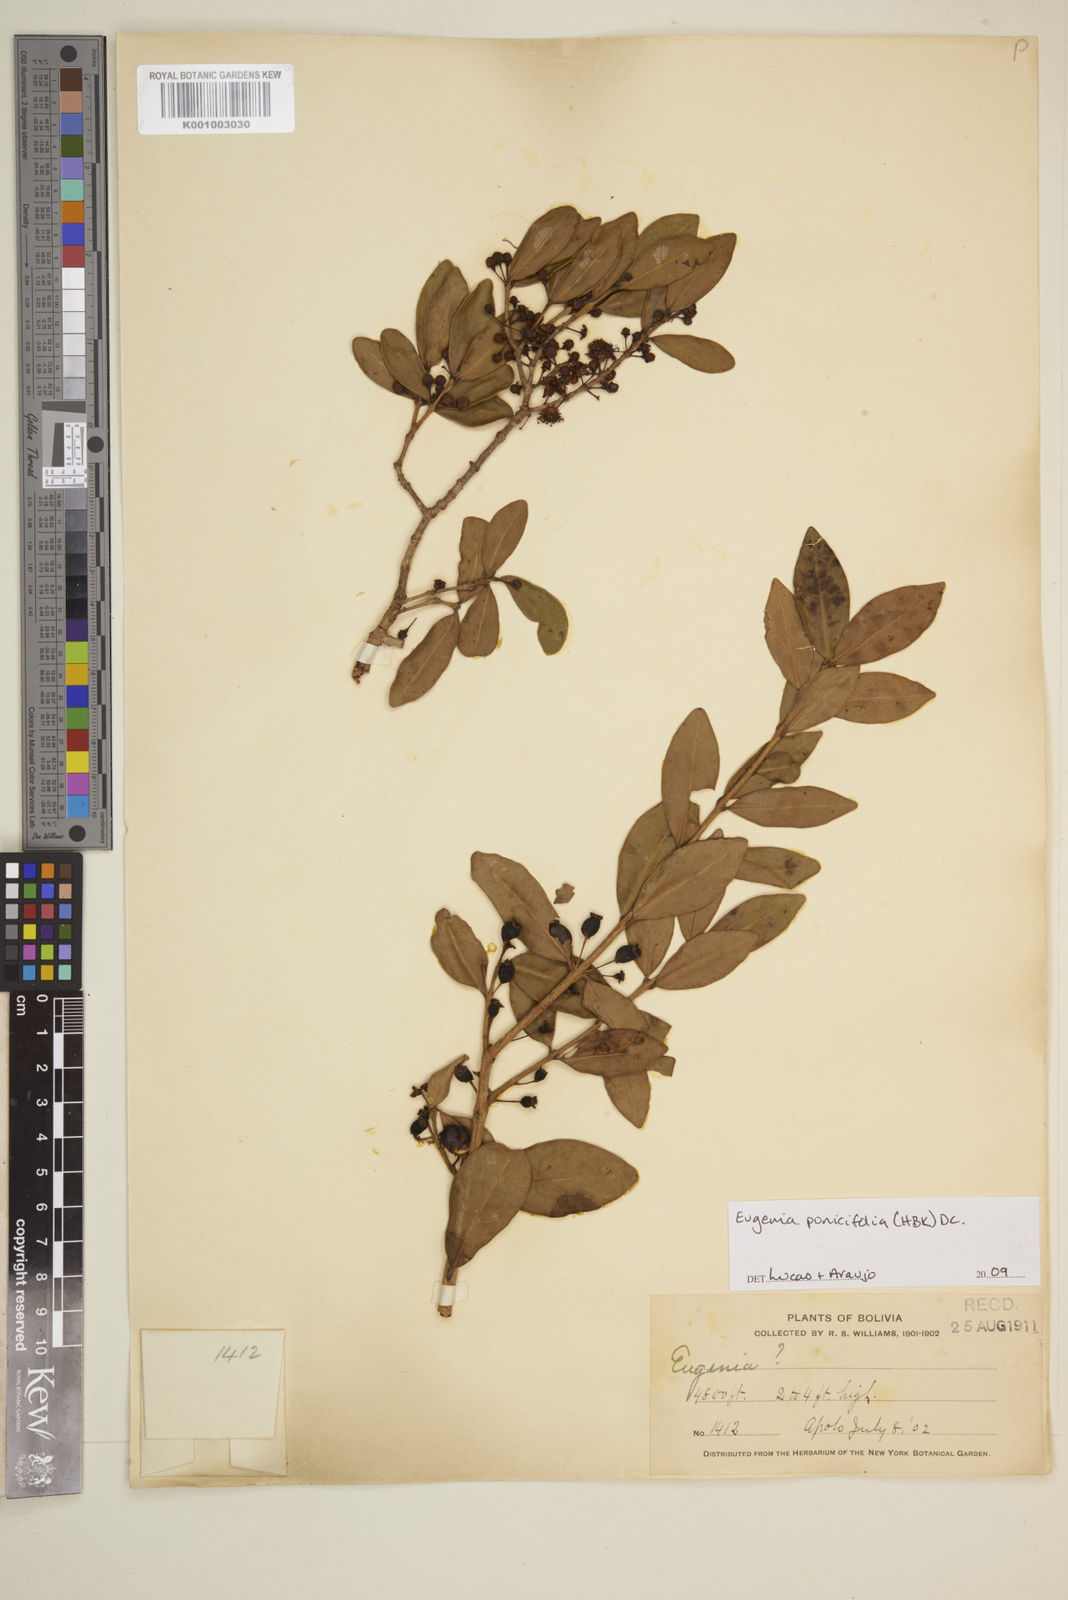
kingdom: Plantae
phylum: Tracheophyta
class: Magnoliopsida
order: Myrtales
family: Myrtaceae
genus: Eugenia
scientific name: Eugenia punicifolia
